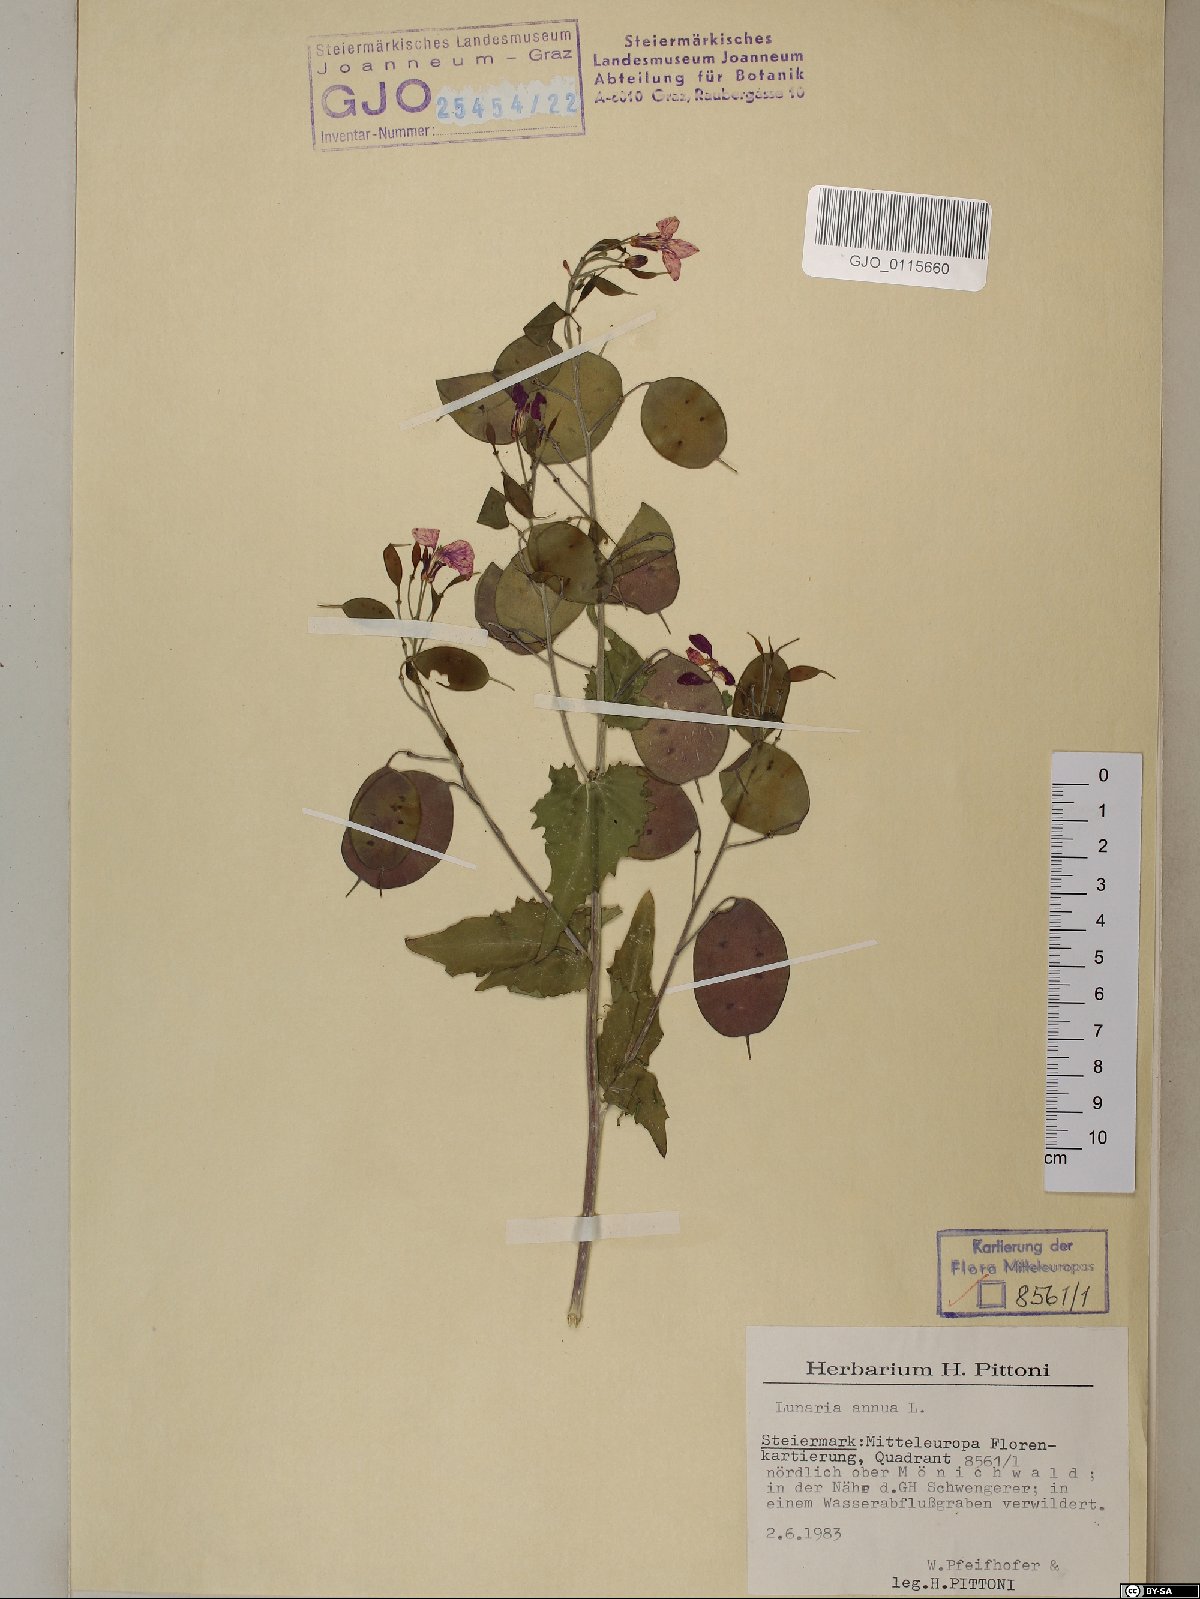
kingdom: Plantae
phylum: Tracheophyta
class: Magnoliopsida
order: Brassicales
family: Brassicaceae
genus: Lunaria
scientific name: Lunaria annua
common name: Honesty
